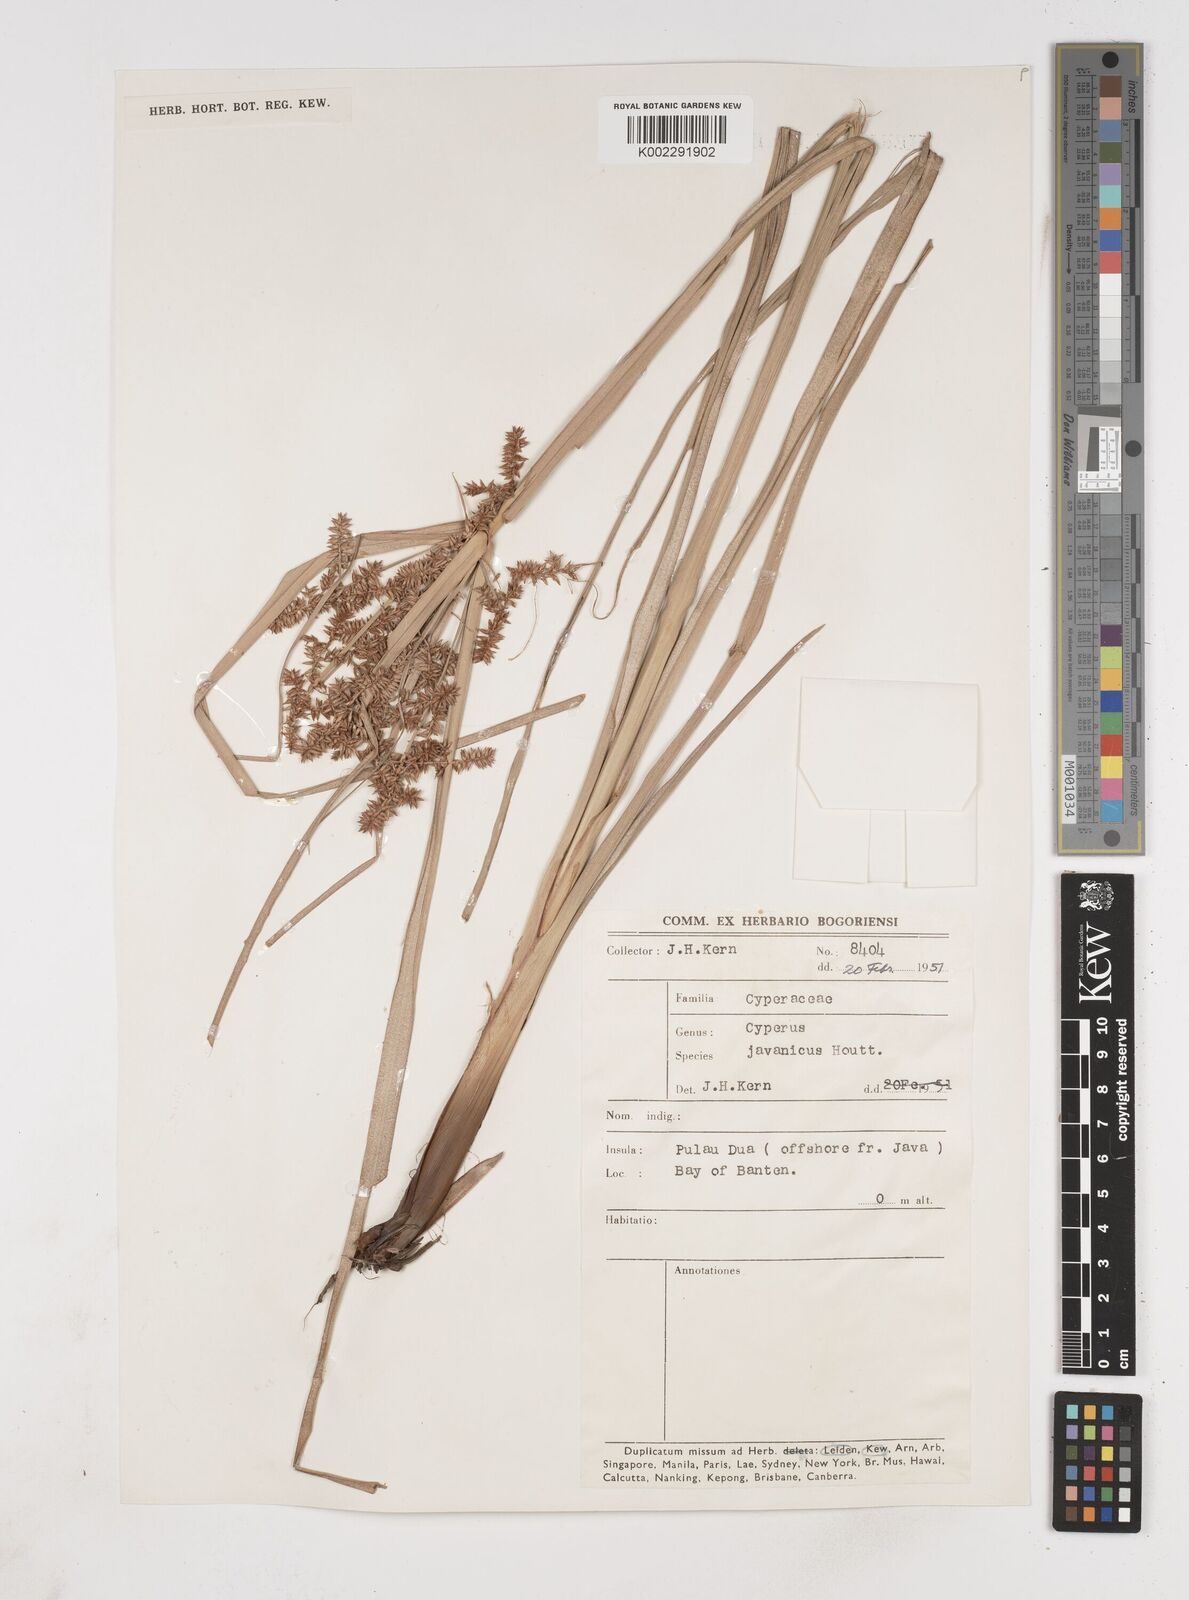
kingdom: Plantae
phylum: Tracheophyta
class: Liliopsida
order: Poales
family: Cyperaceae
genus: Cyperus
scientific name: Cyperus javanicus
